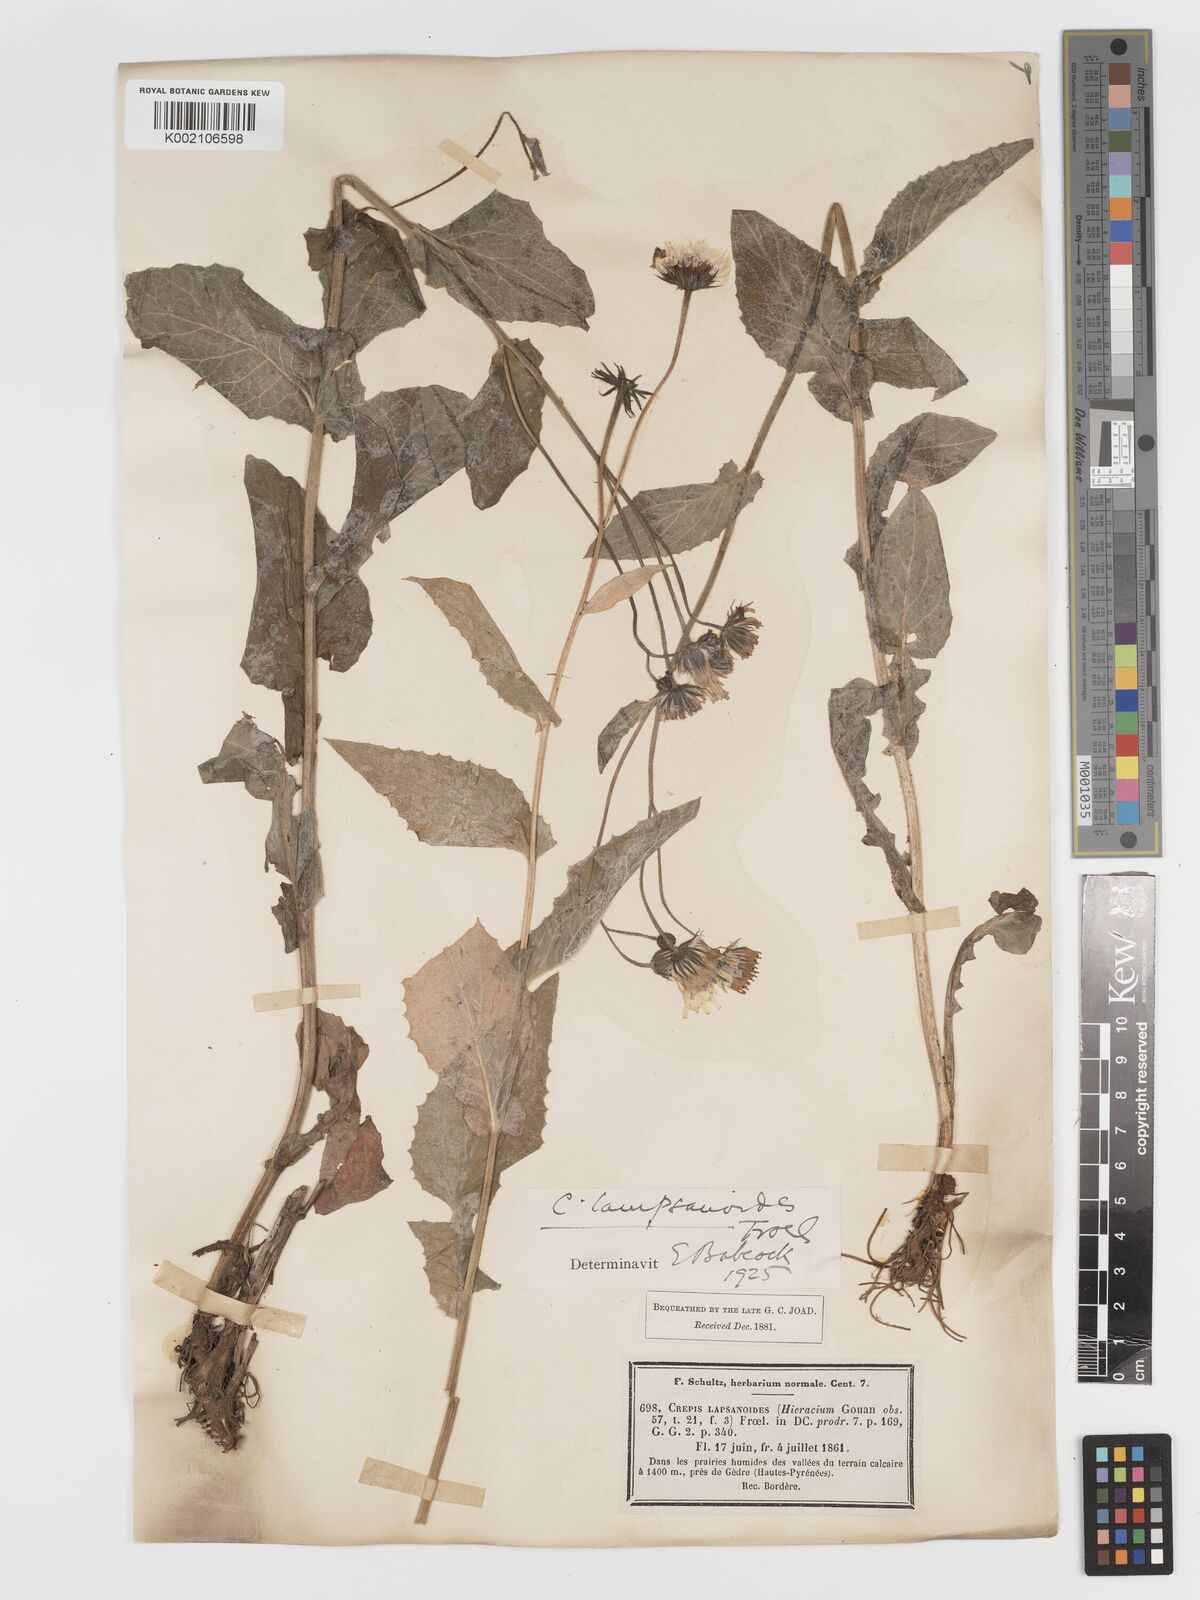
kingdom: Plantae
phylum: Tracheophyta
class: Magnoliopsida
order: Asterales
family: Asteraceae
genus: Crepis
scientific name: Crepis lampsanoides
